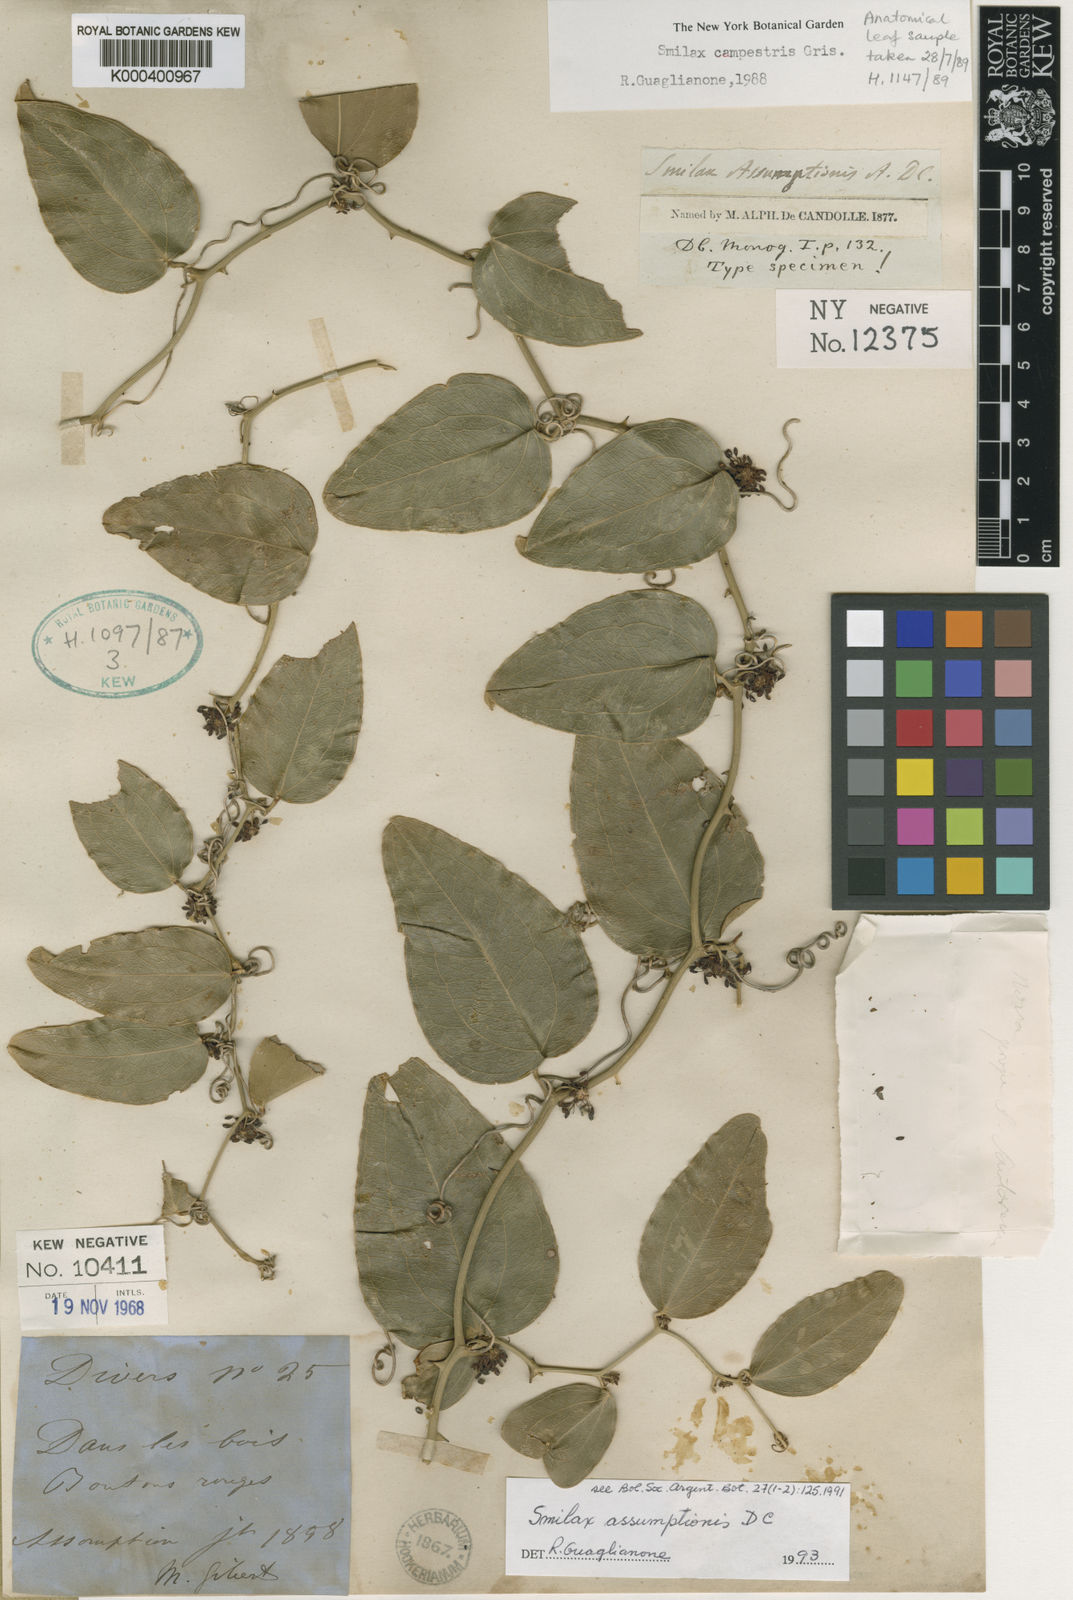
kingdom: Plantae
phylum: Tracheophyta
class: Liliopsida
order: Liliales
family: Smilacaceae
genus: Smilax
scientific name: Smilax
